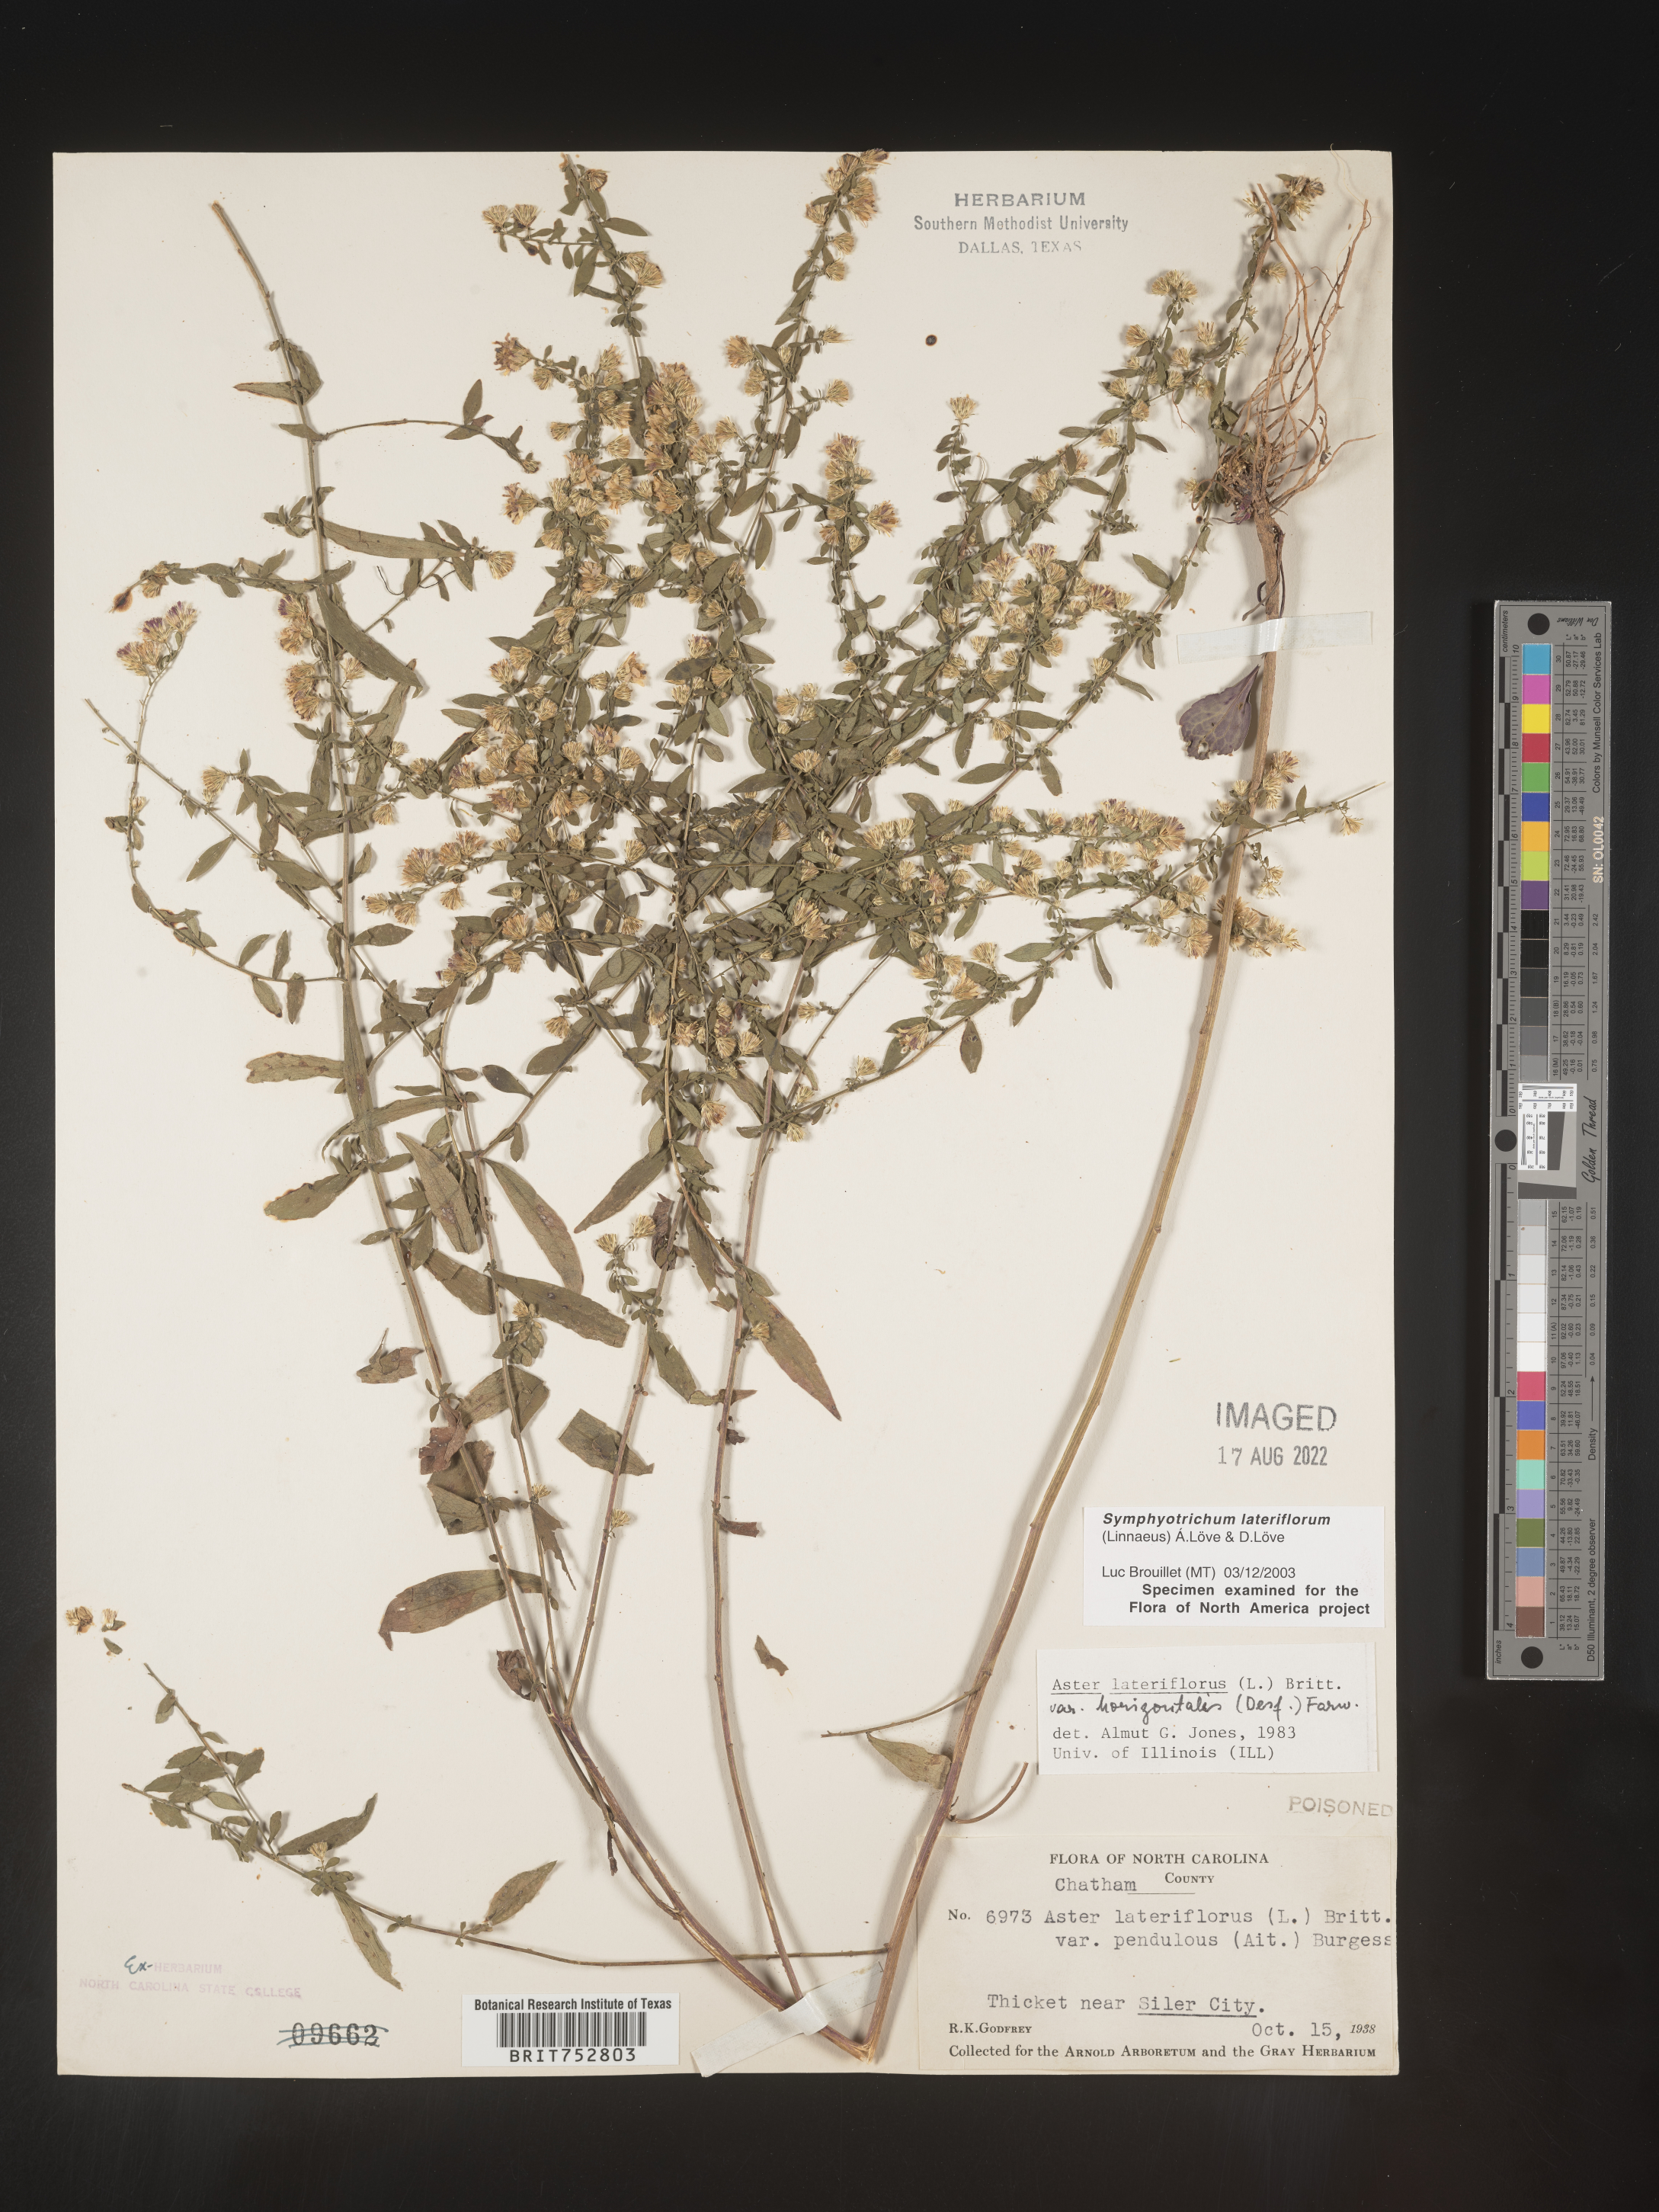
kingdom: Plantae
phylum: Tracheophyta
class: Magnoliopsida
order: Asterales
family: Asteraceae
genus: Symphyotrichum
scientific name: Symphyotrichum lateriflorum
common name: Calico aster
